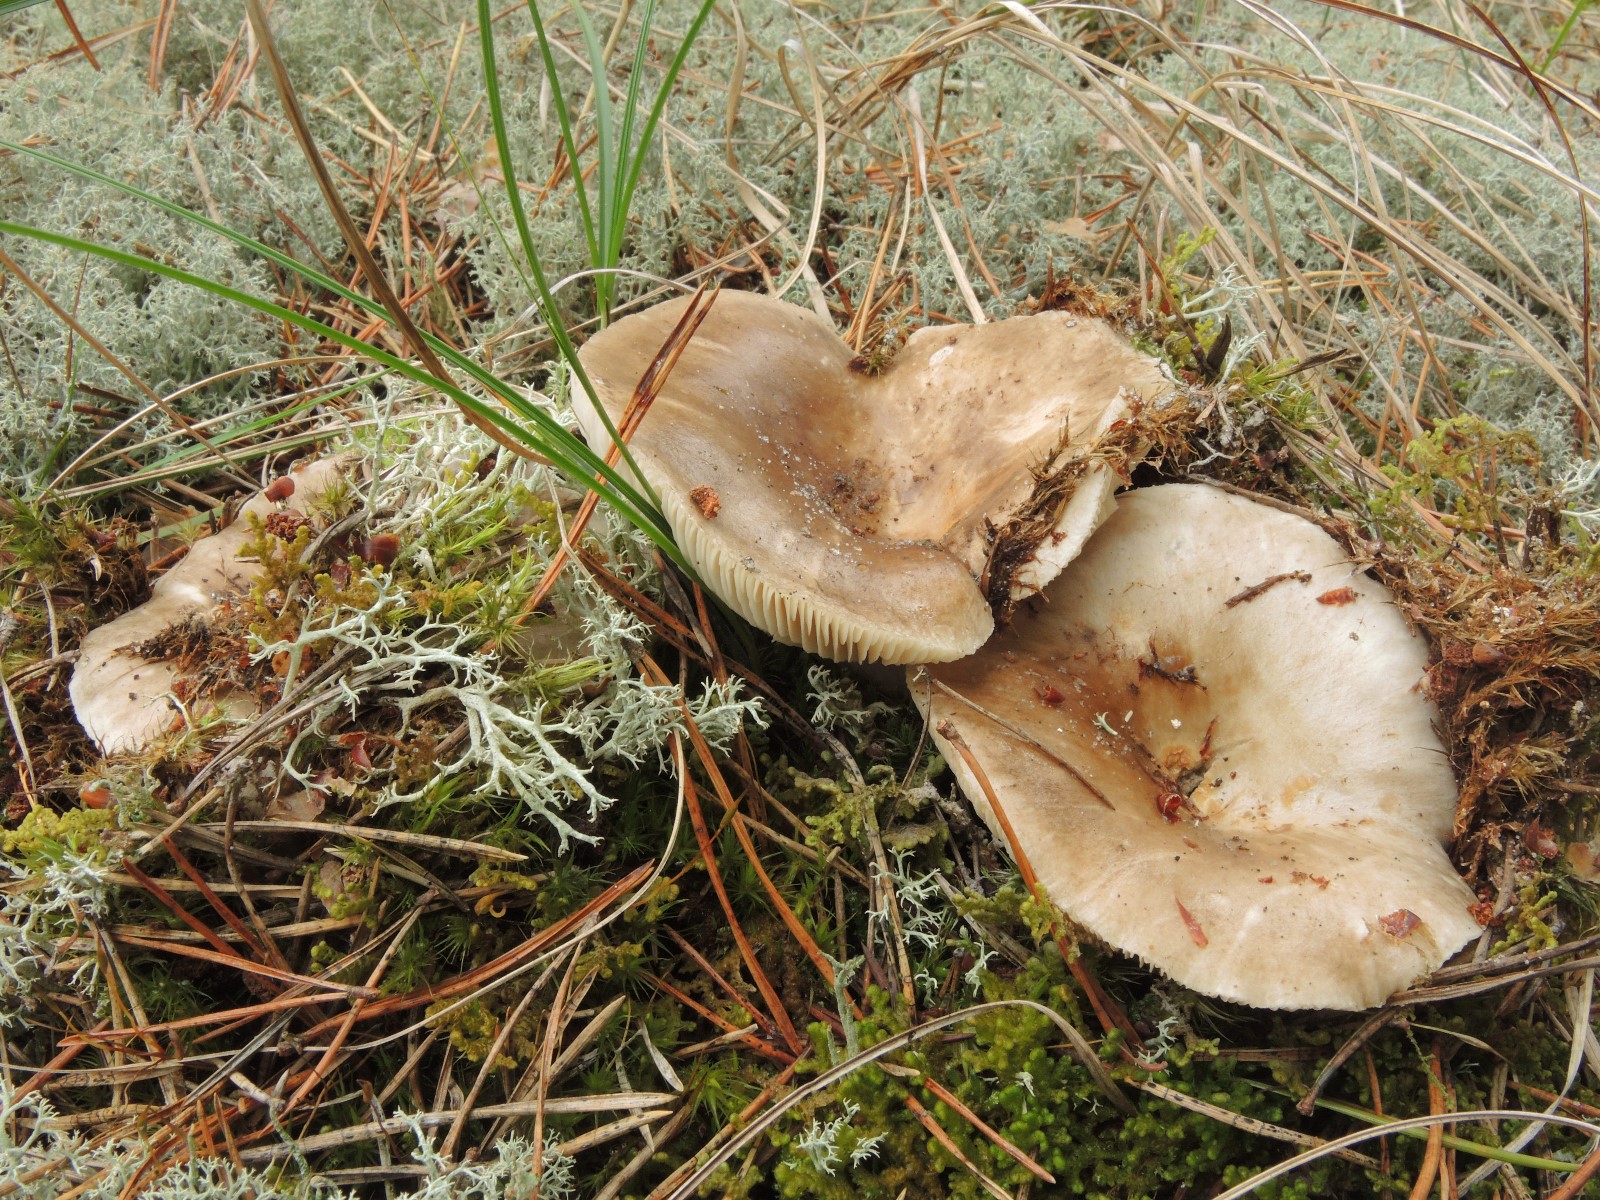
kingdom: Fungi
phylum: Basidiomycota
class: Agaricomycetes
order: Russulales
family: Russulaceae
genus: Russula
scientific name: Russula adusta
